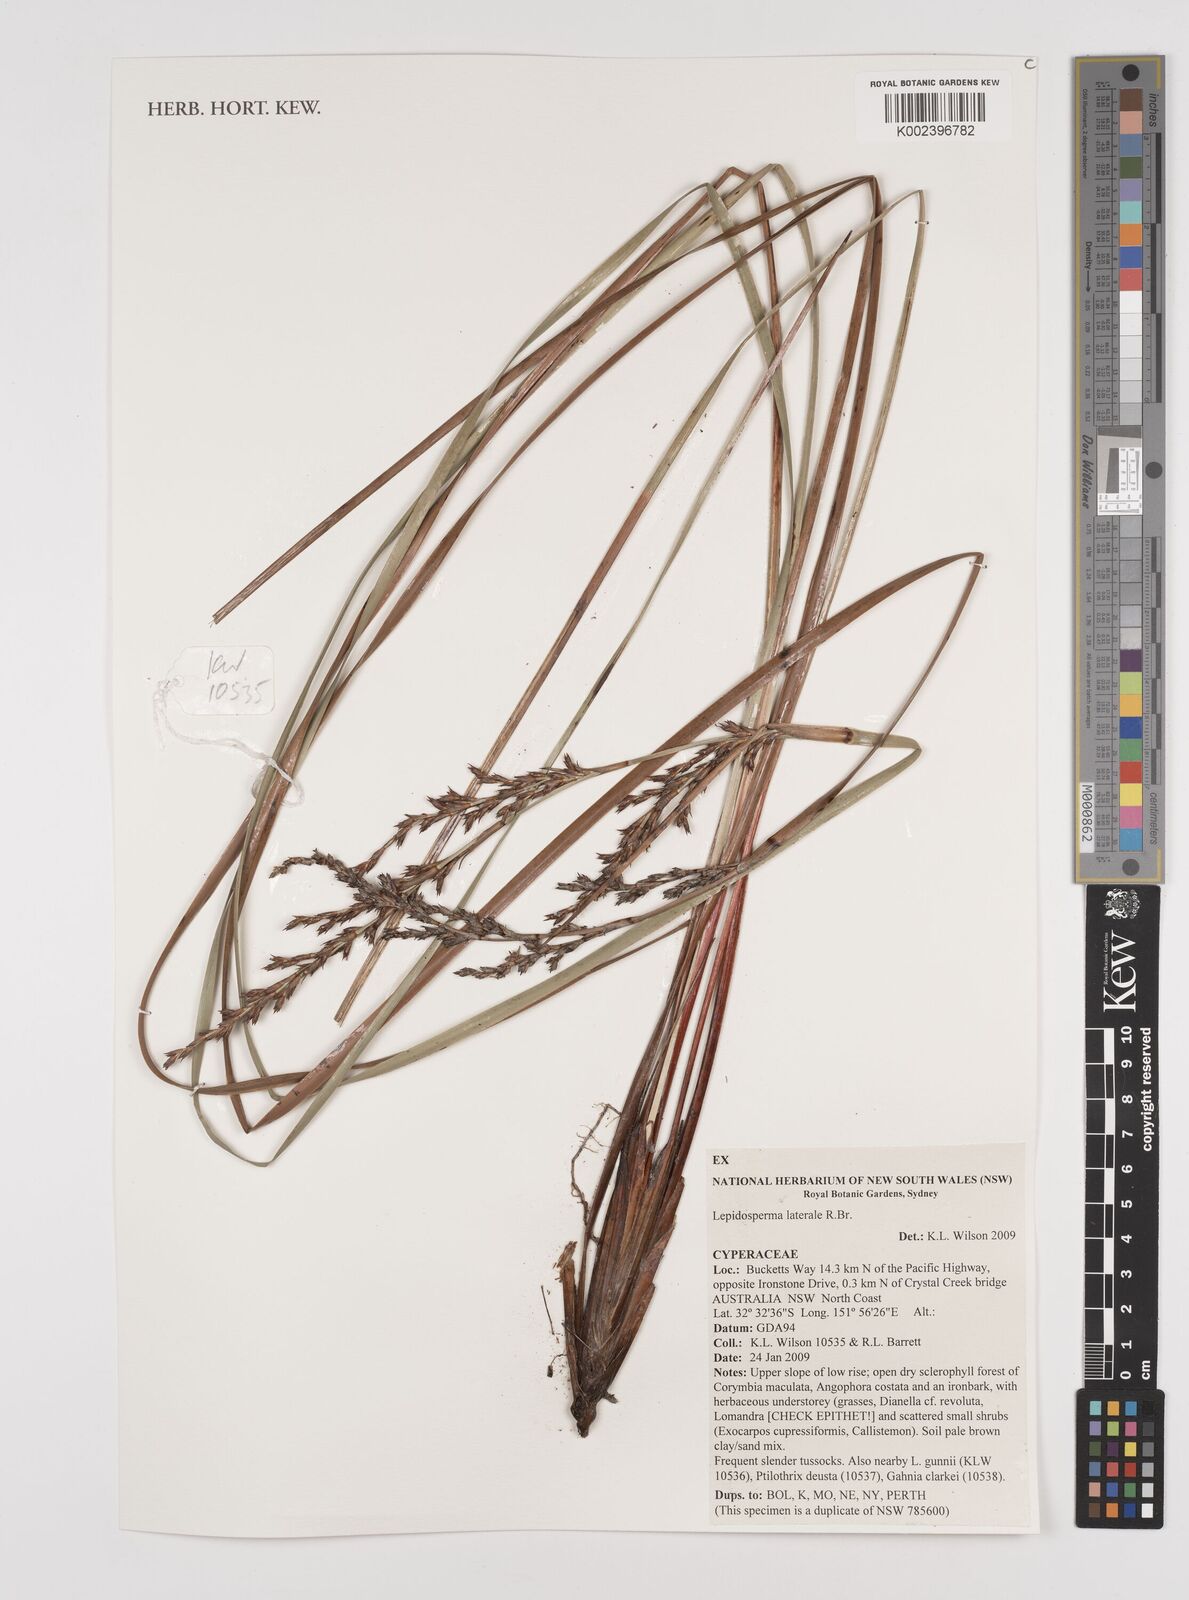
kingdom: Plantae
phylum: Tracheophyta
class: Liliopsida
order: Poales
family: Cyperaceae
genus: Lepidosperma
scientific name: Lepidosperma laterale
